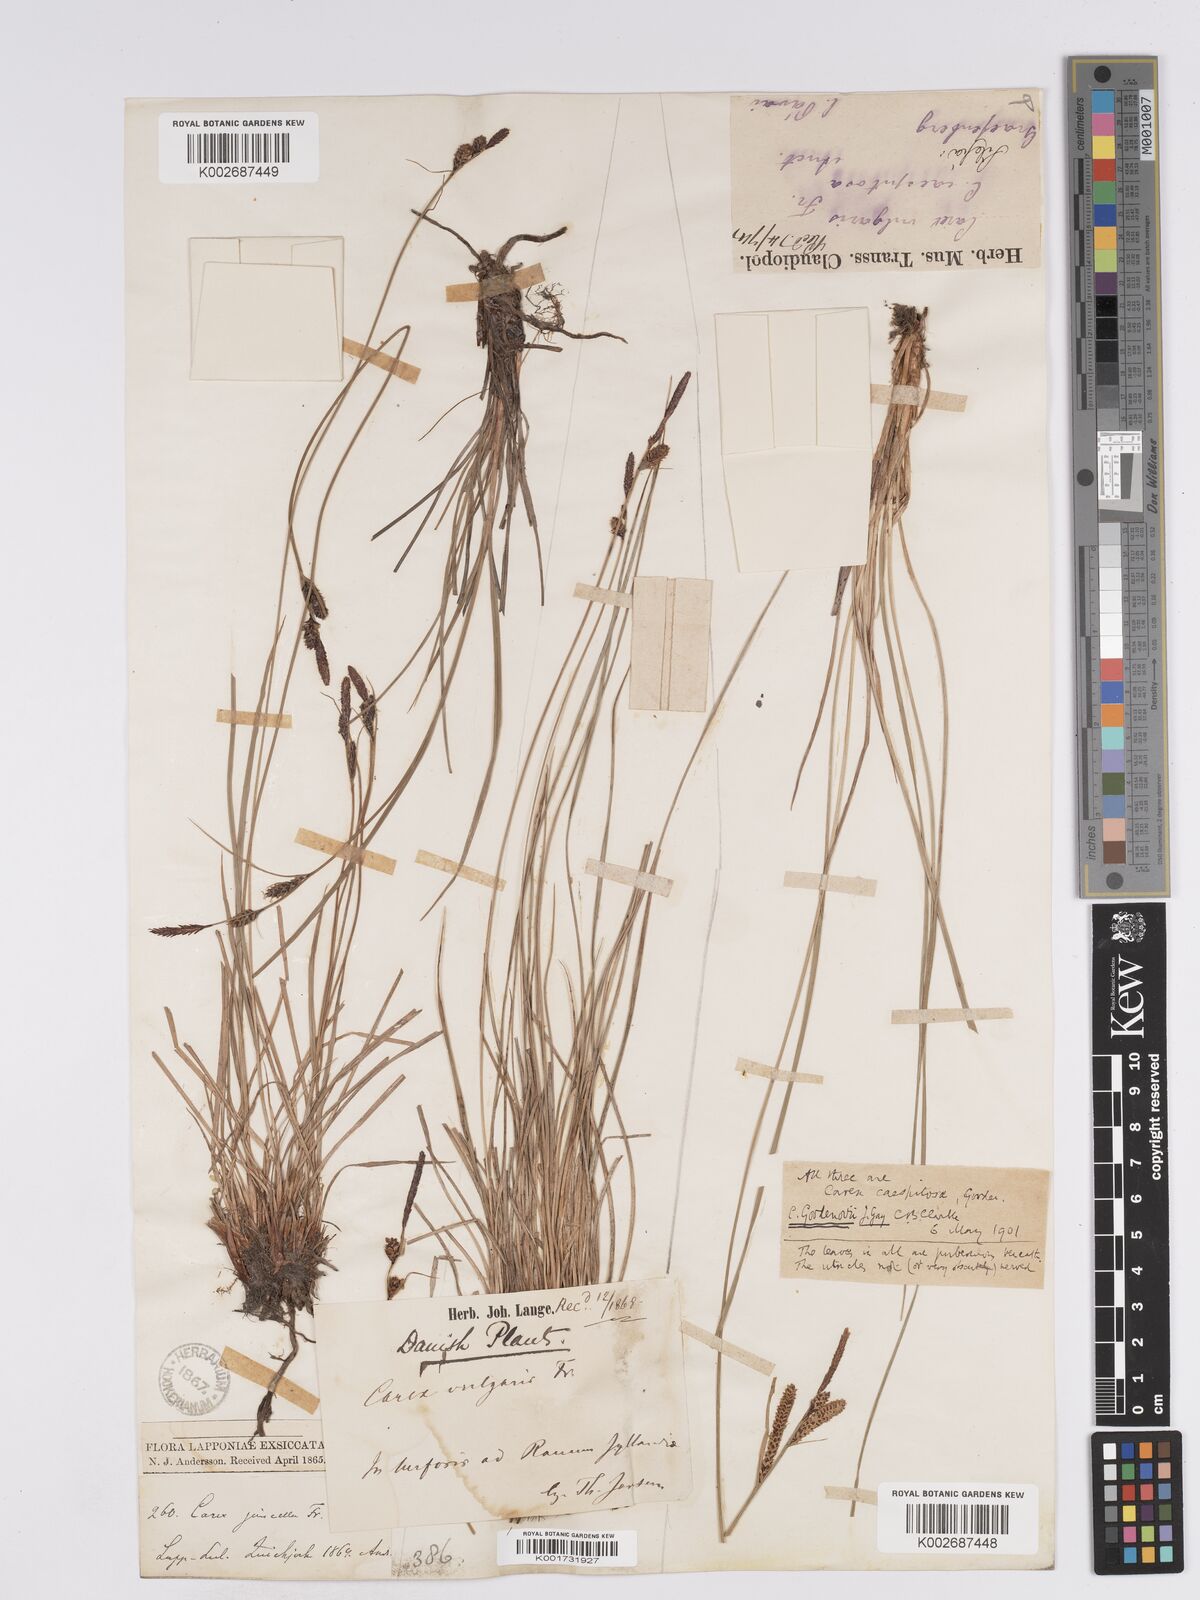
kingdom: Plantae
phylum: Tracheophyta
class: Liliopsida
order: Poales
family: Cyperaceae
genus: Carex
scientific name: Carex nigra
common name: Common sedge
